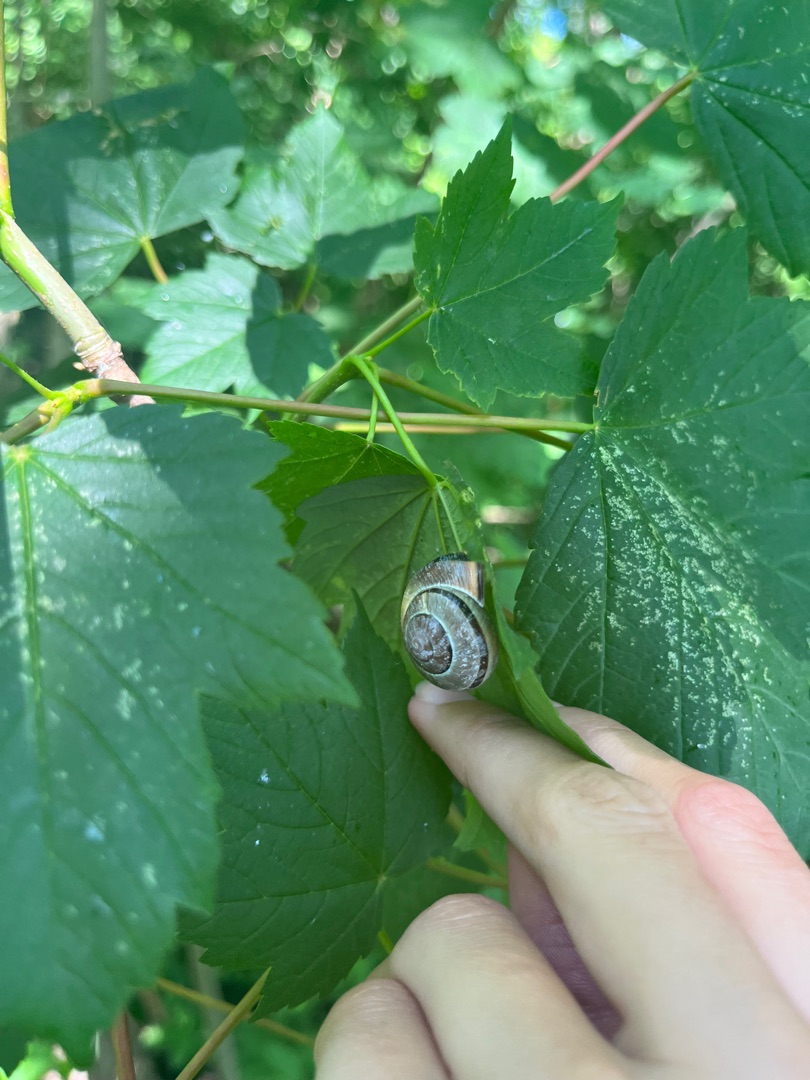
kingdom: Animalia
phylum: Mollusca
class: Gastropoda
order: Stylommatophora
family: Helicidae
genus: Cepaea
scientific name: Cepaea nemoralis
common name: Lundsnegl
